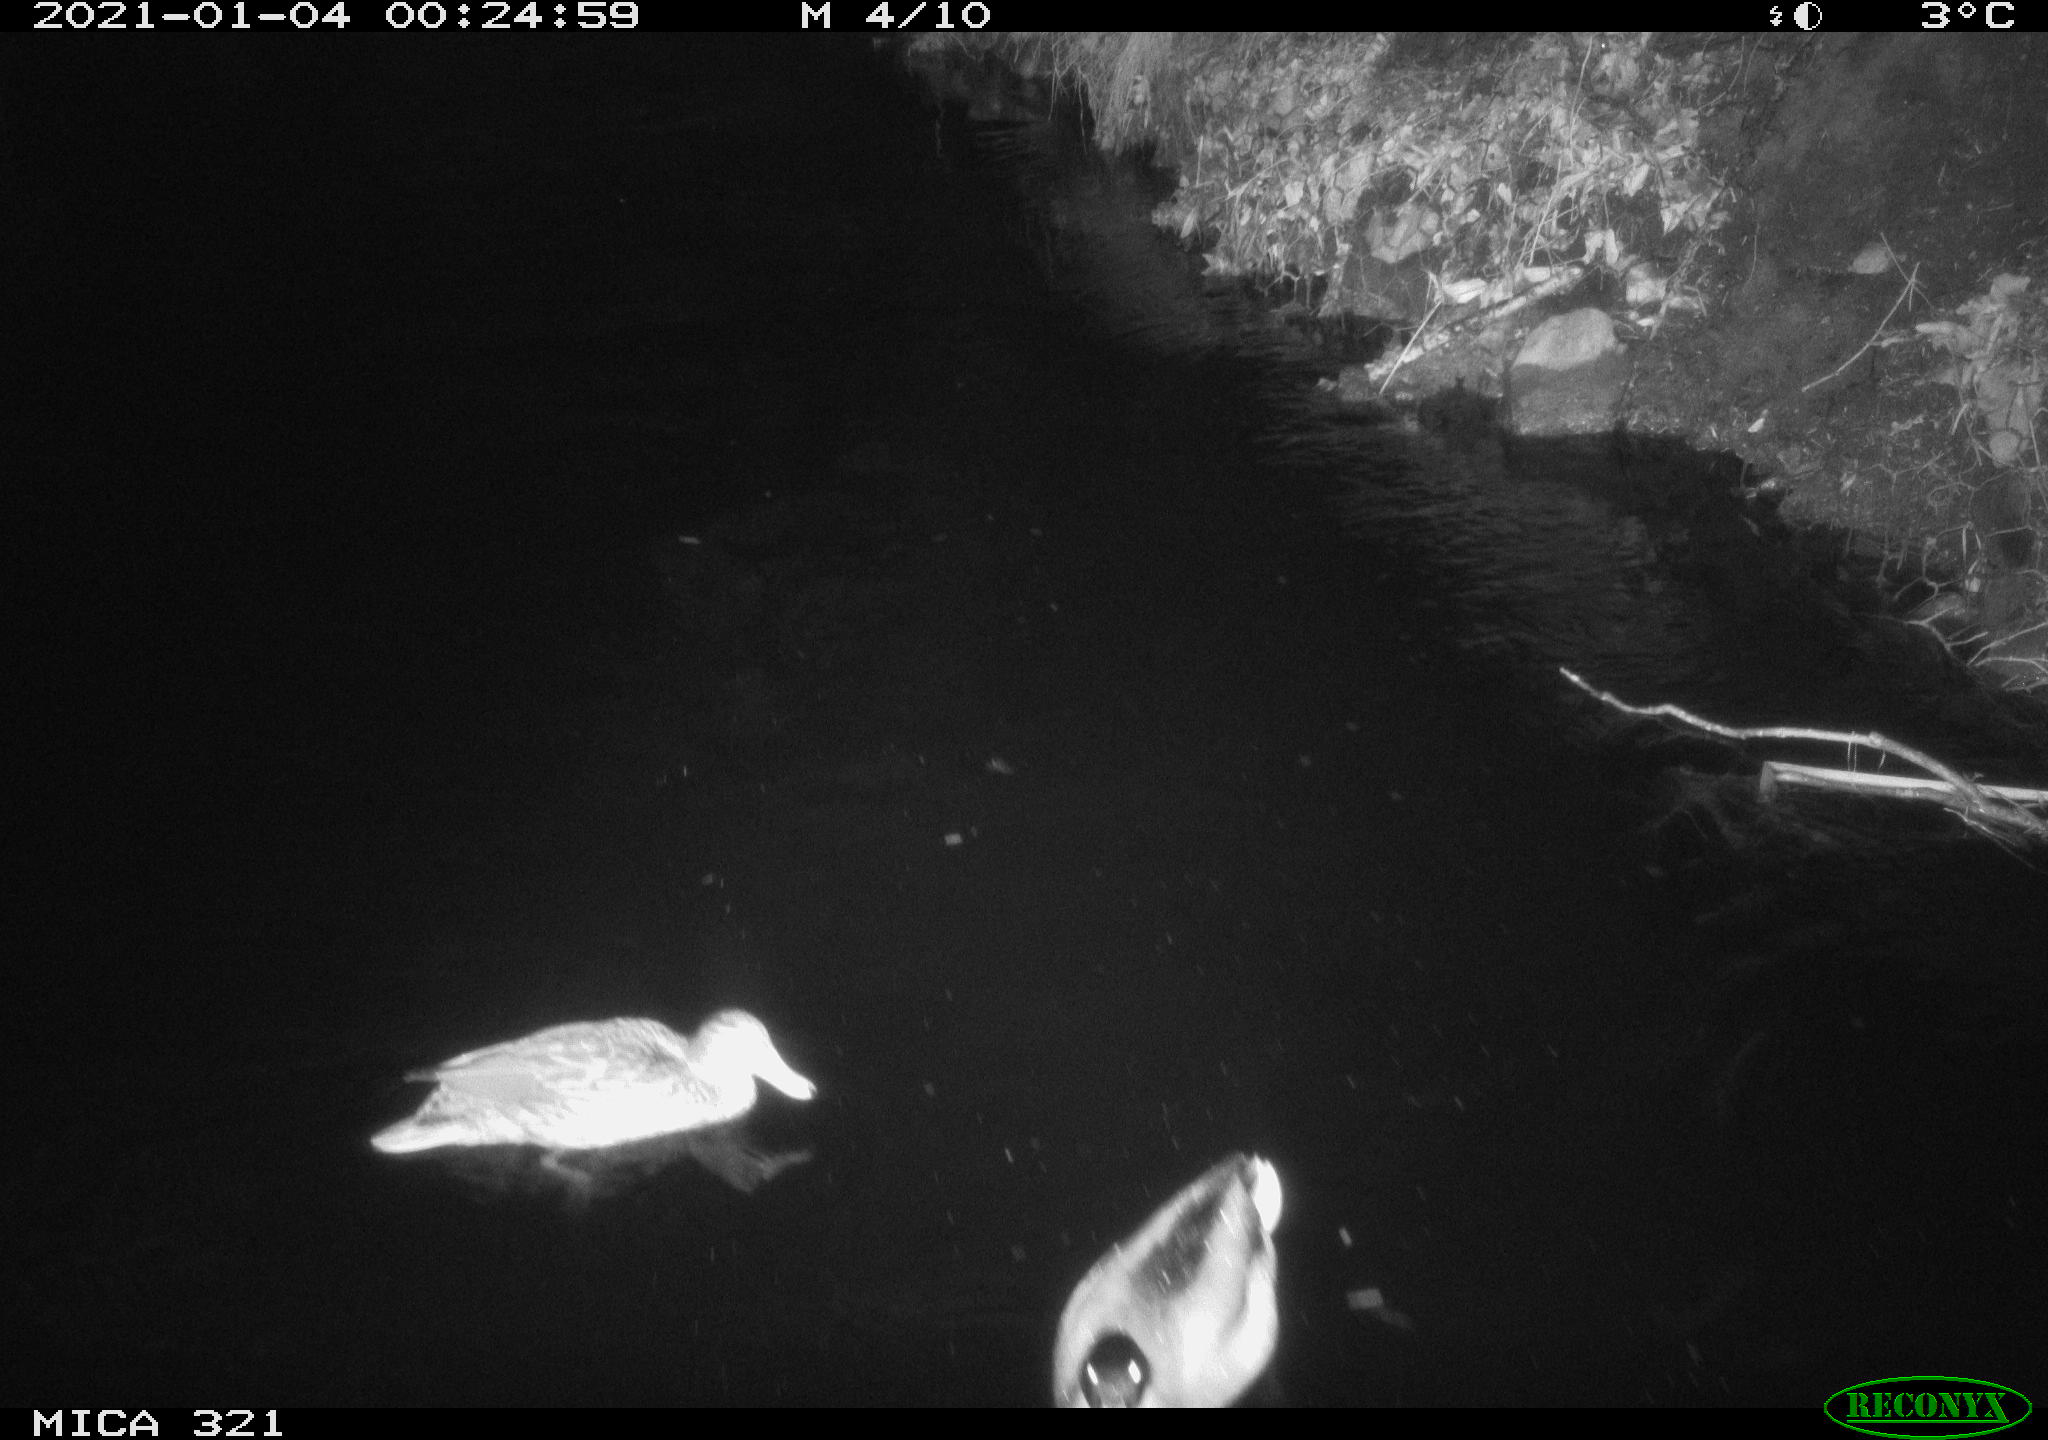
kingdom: Animalia
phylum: Chordata
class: Aves
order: Anseriformes
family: Anatidae
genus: Anas
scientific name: Anas platyrhynchos
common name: Mallard
